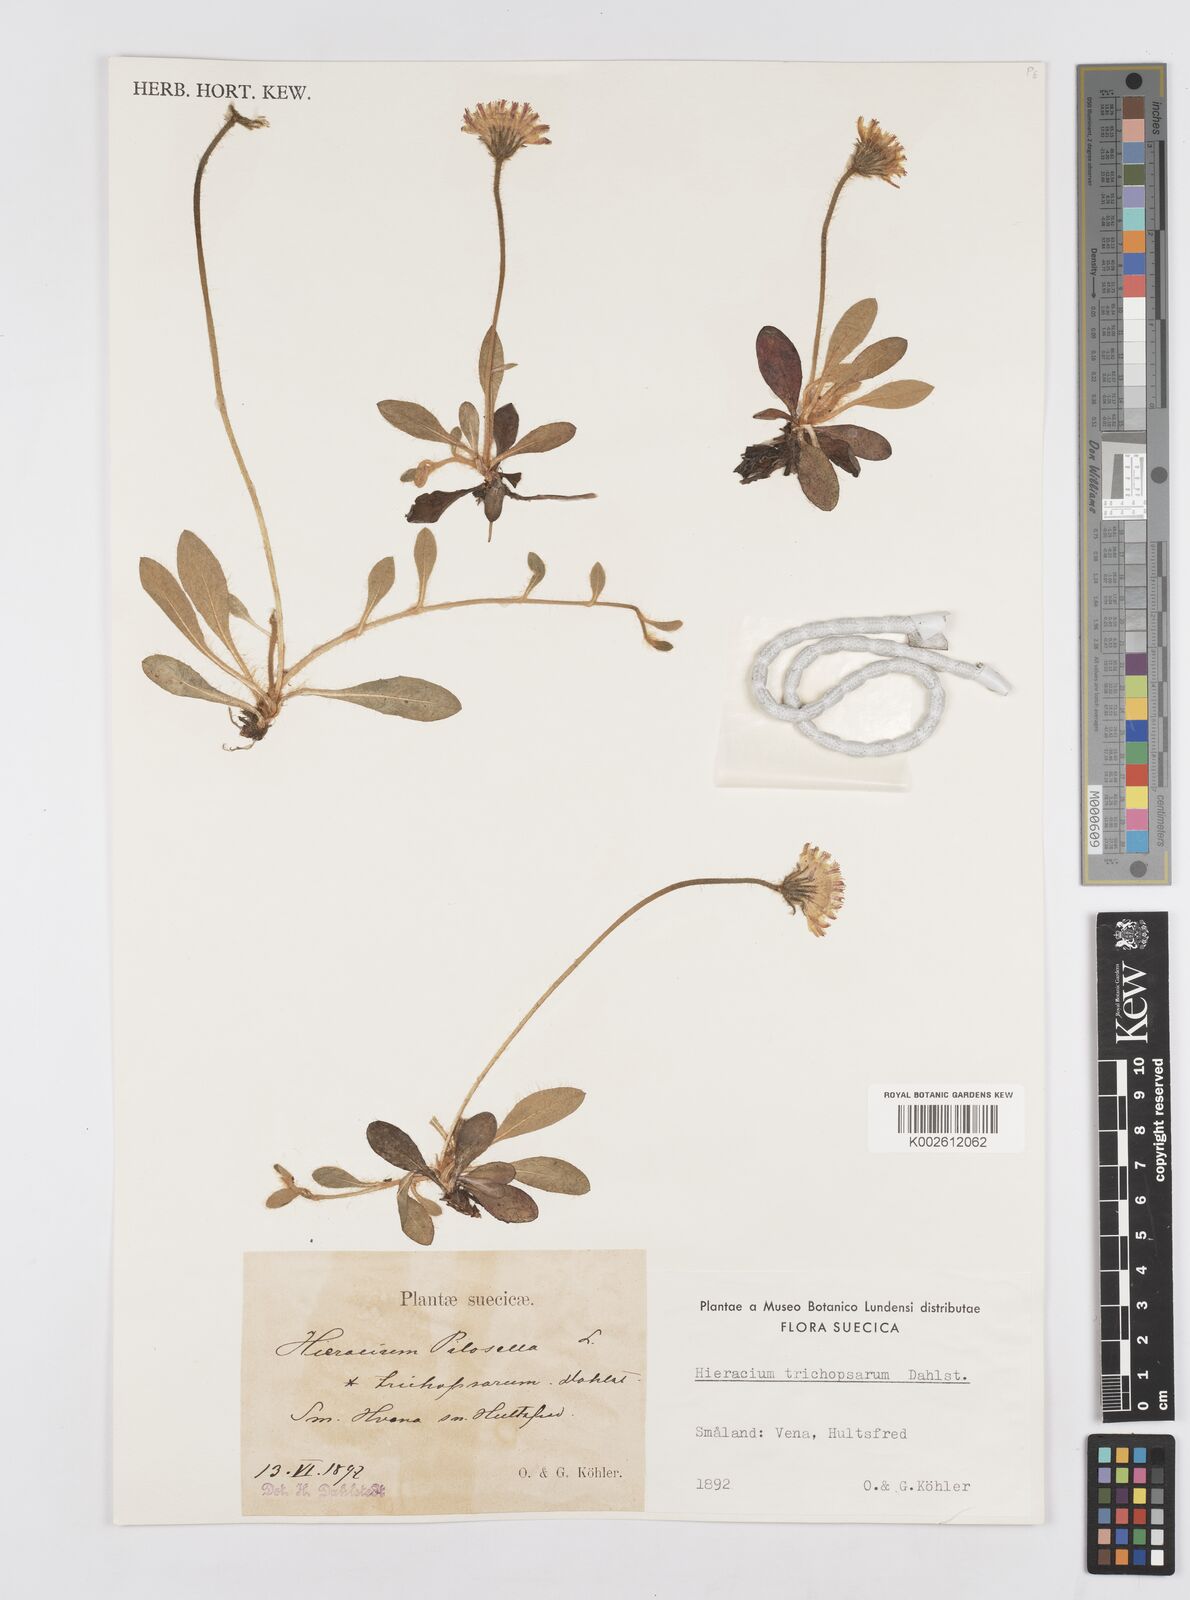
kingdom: Plantae
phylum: Tracheophyta
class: Magnoliopsida
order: Asterales
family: Asteraceae
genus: Hieracium
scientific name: Hieracium
